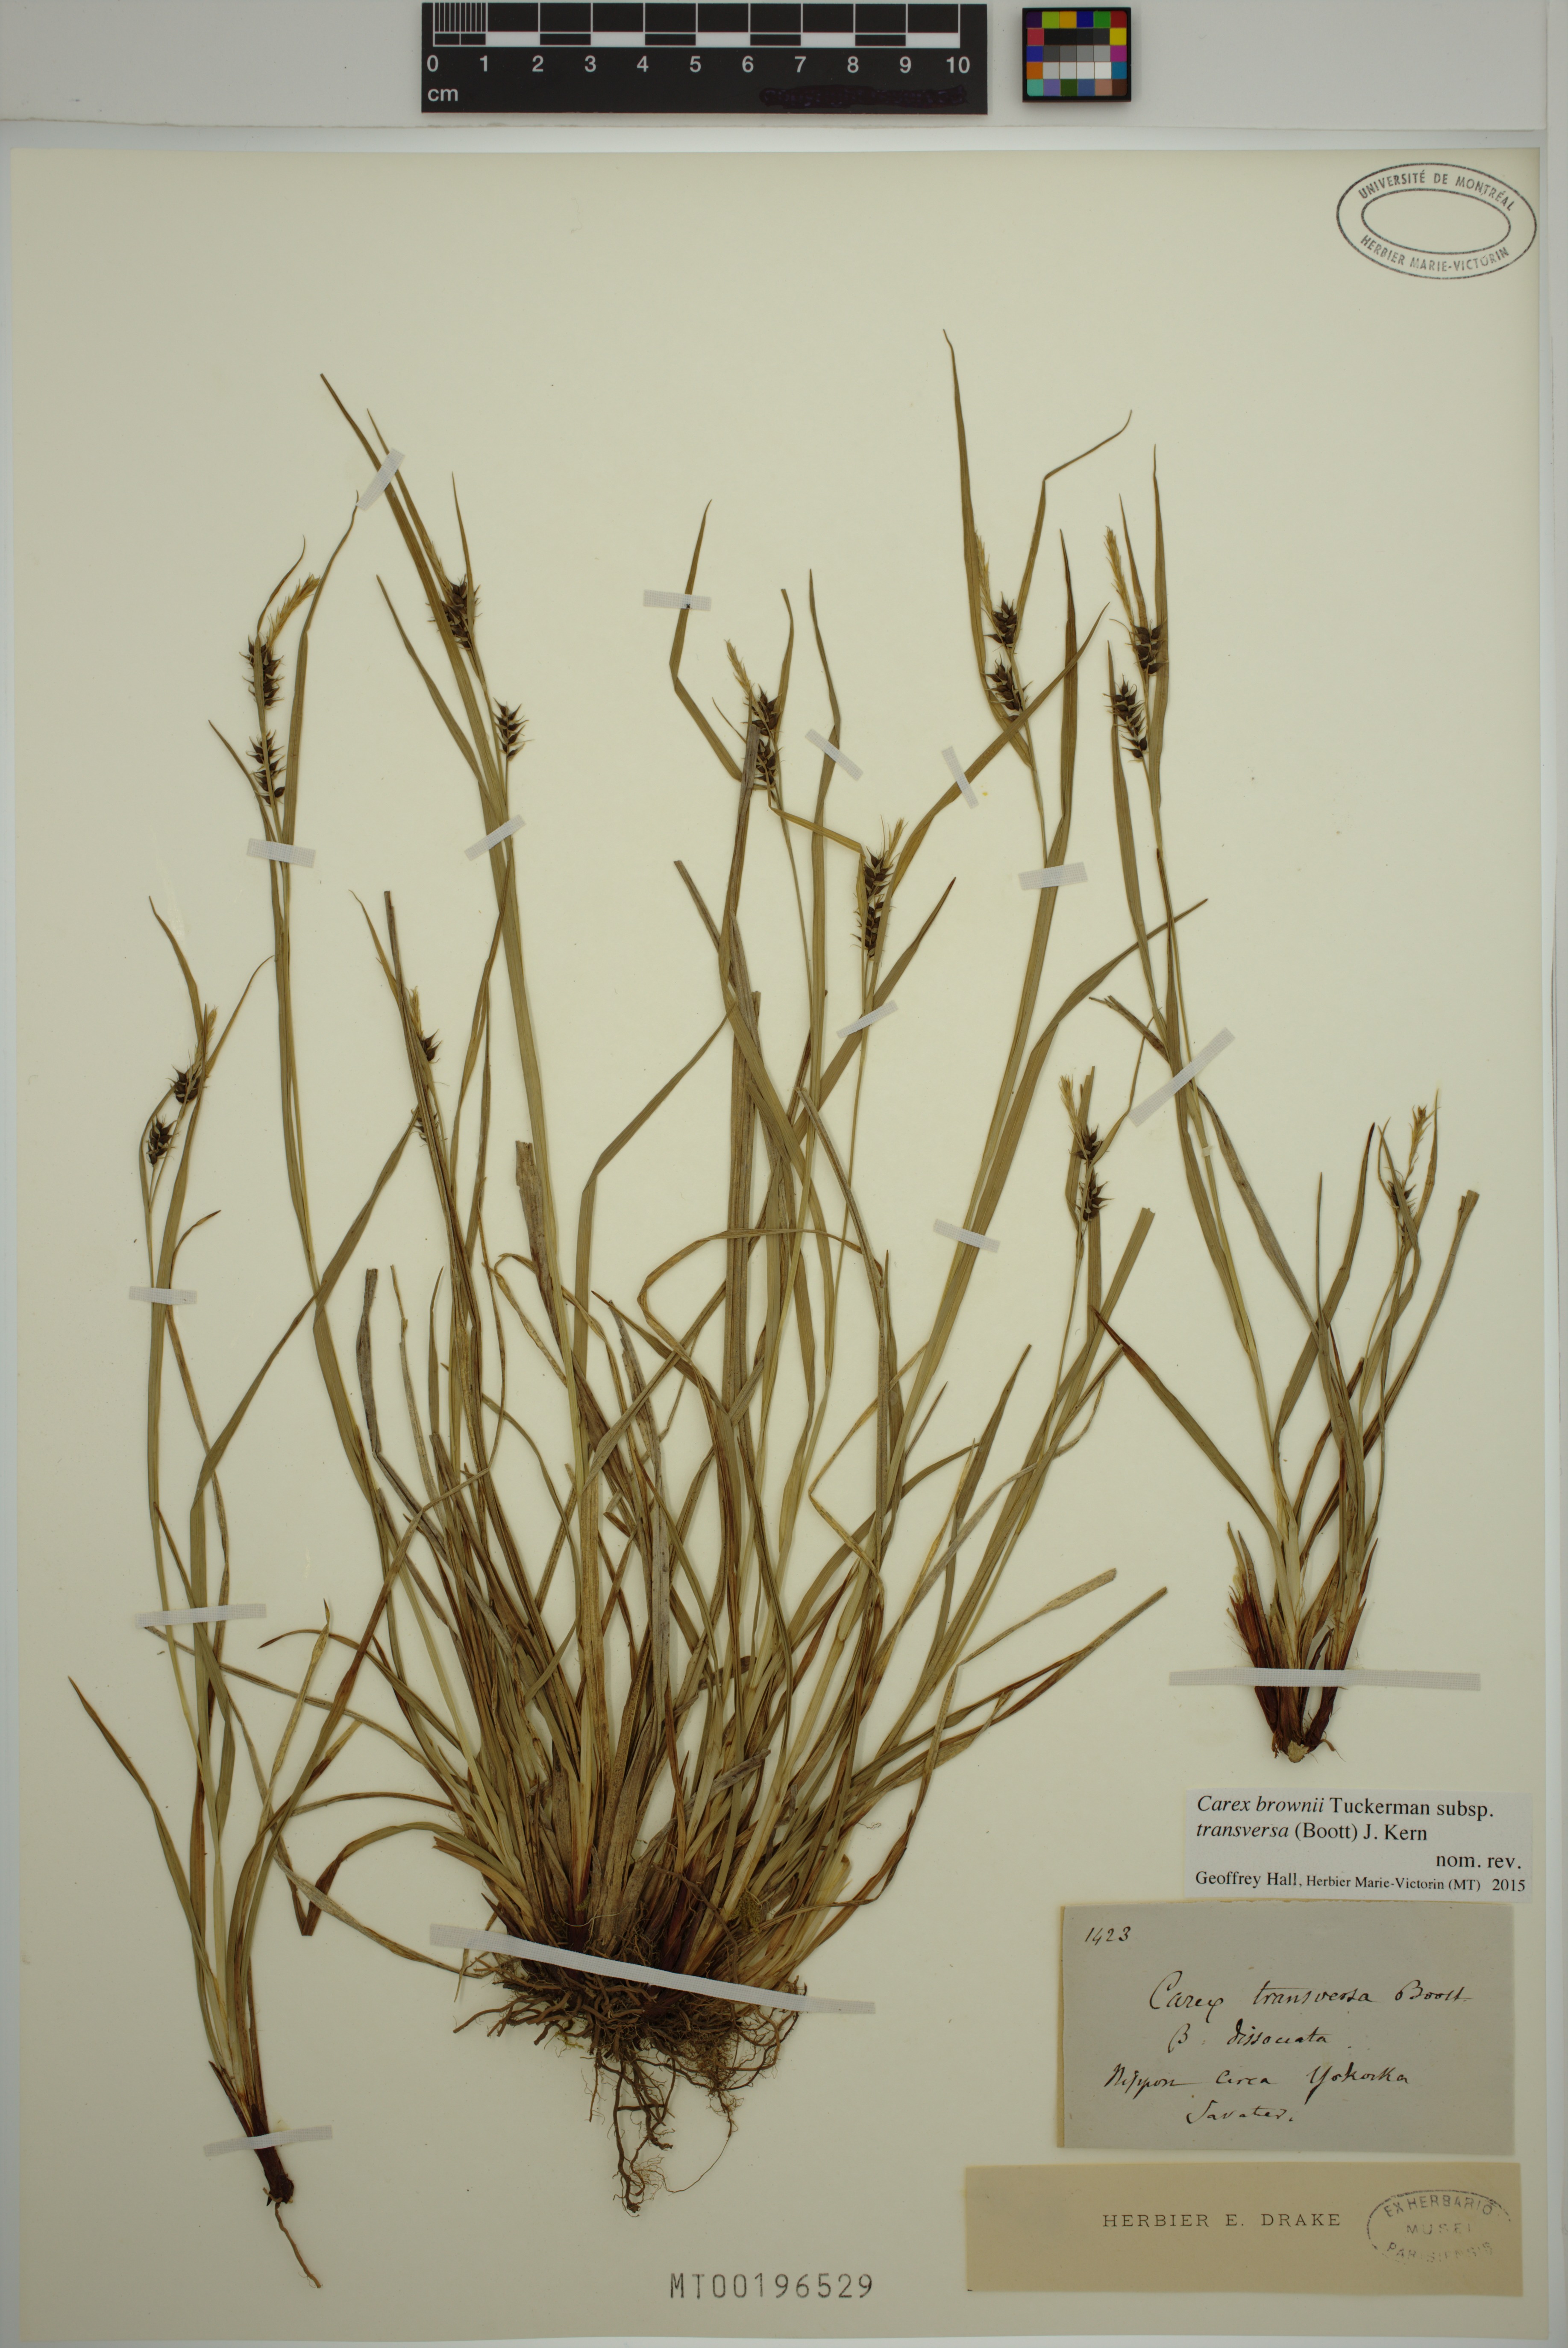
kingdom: Plantae
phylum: Tracheophyta
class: Liliopsida
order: Poales
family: Cyperaceae
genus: Carex
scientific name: Carex brownii
